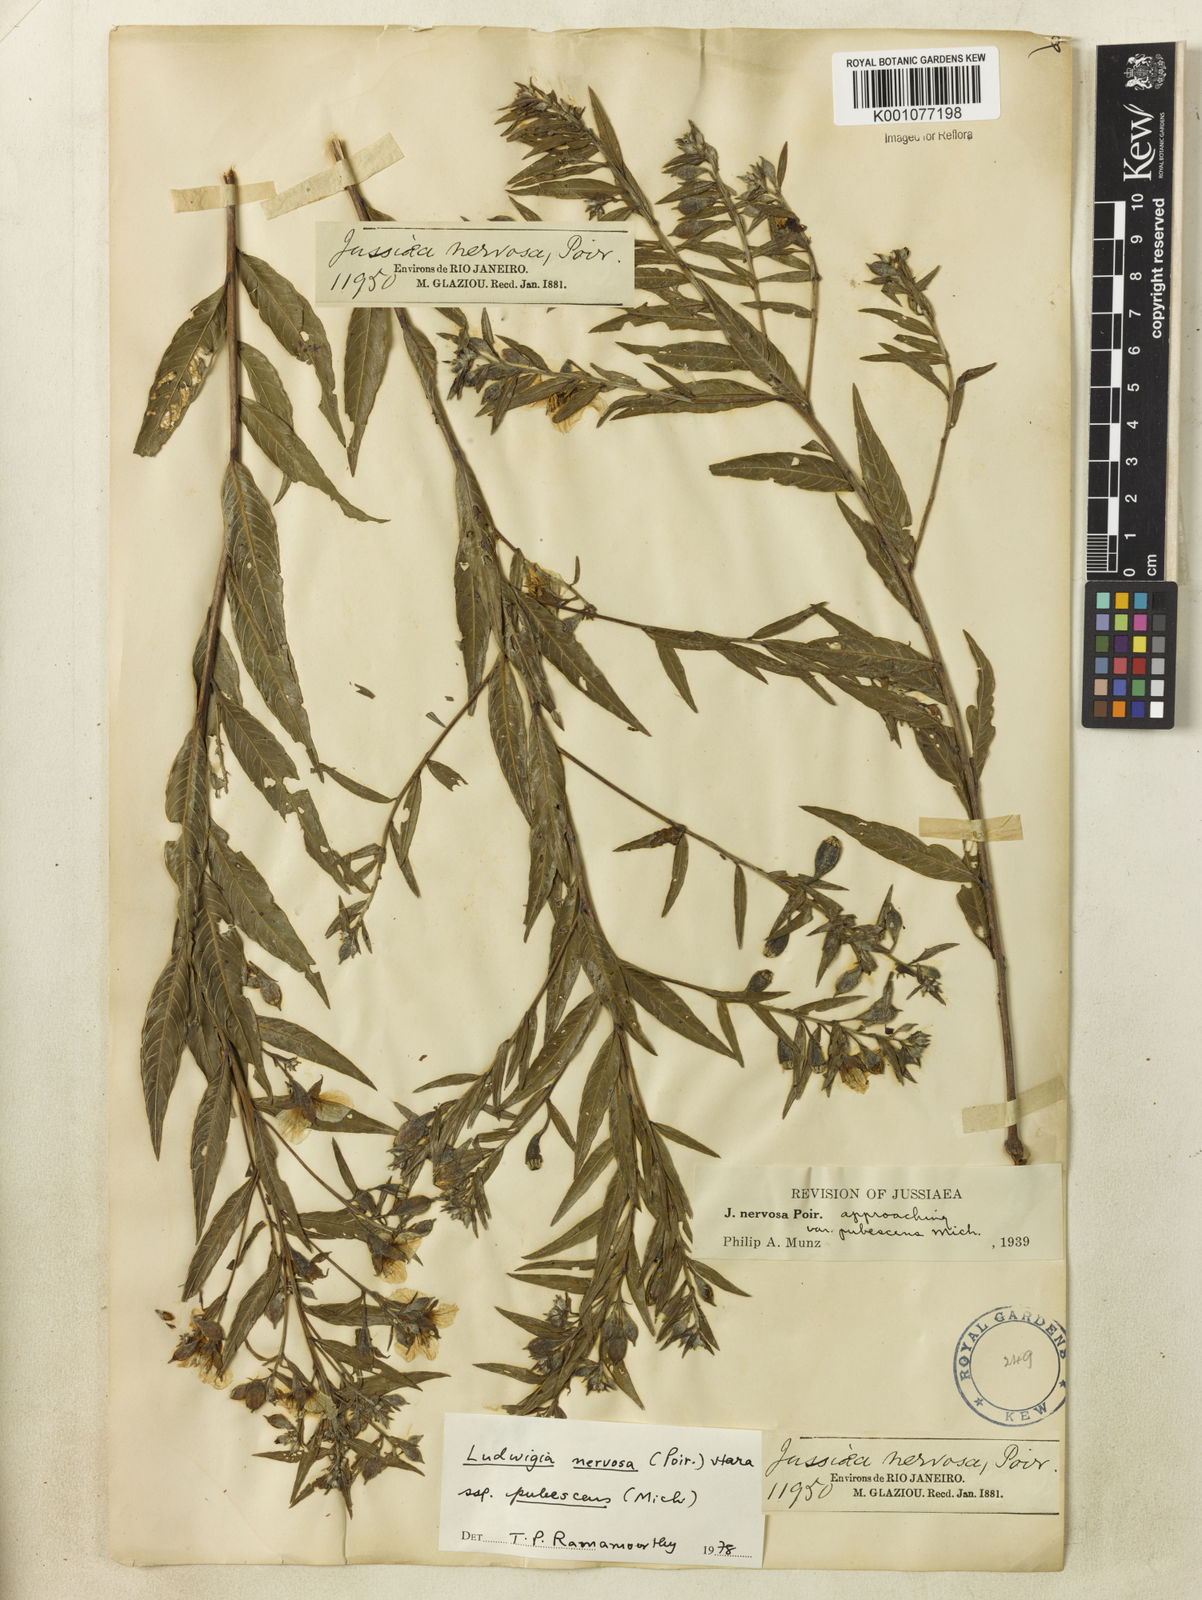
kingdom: Plantae
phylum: Tracheophyta
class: Magnoliopsida
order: Myrtales
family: Onagraceae
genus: Ludwigia
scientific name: Ludwigia nervosa
